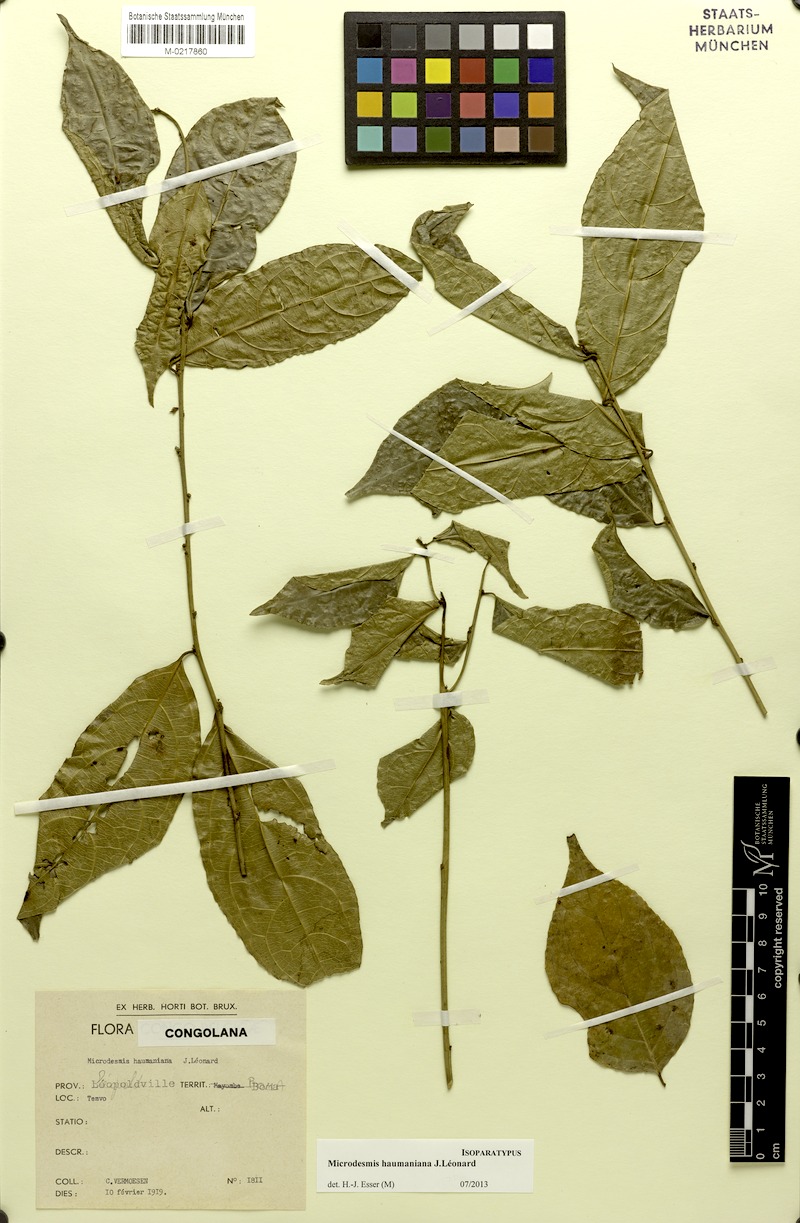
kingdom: Plantae
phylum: Tracheophyta
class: Magnoliopsida
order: Malpighiales
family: Pandaceae
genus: Microdesmis
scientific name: Microdesmis haumaniana
